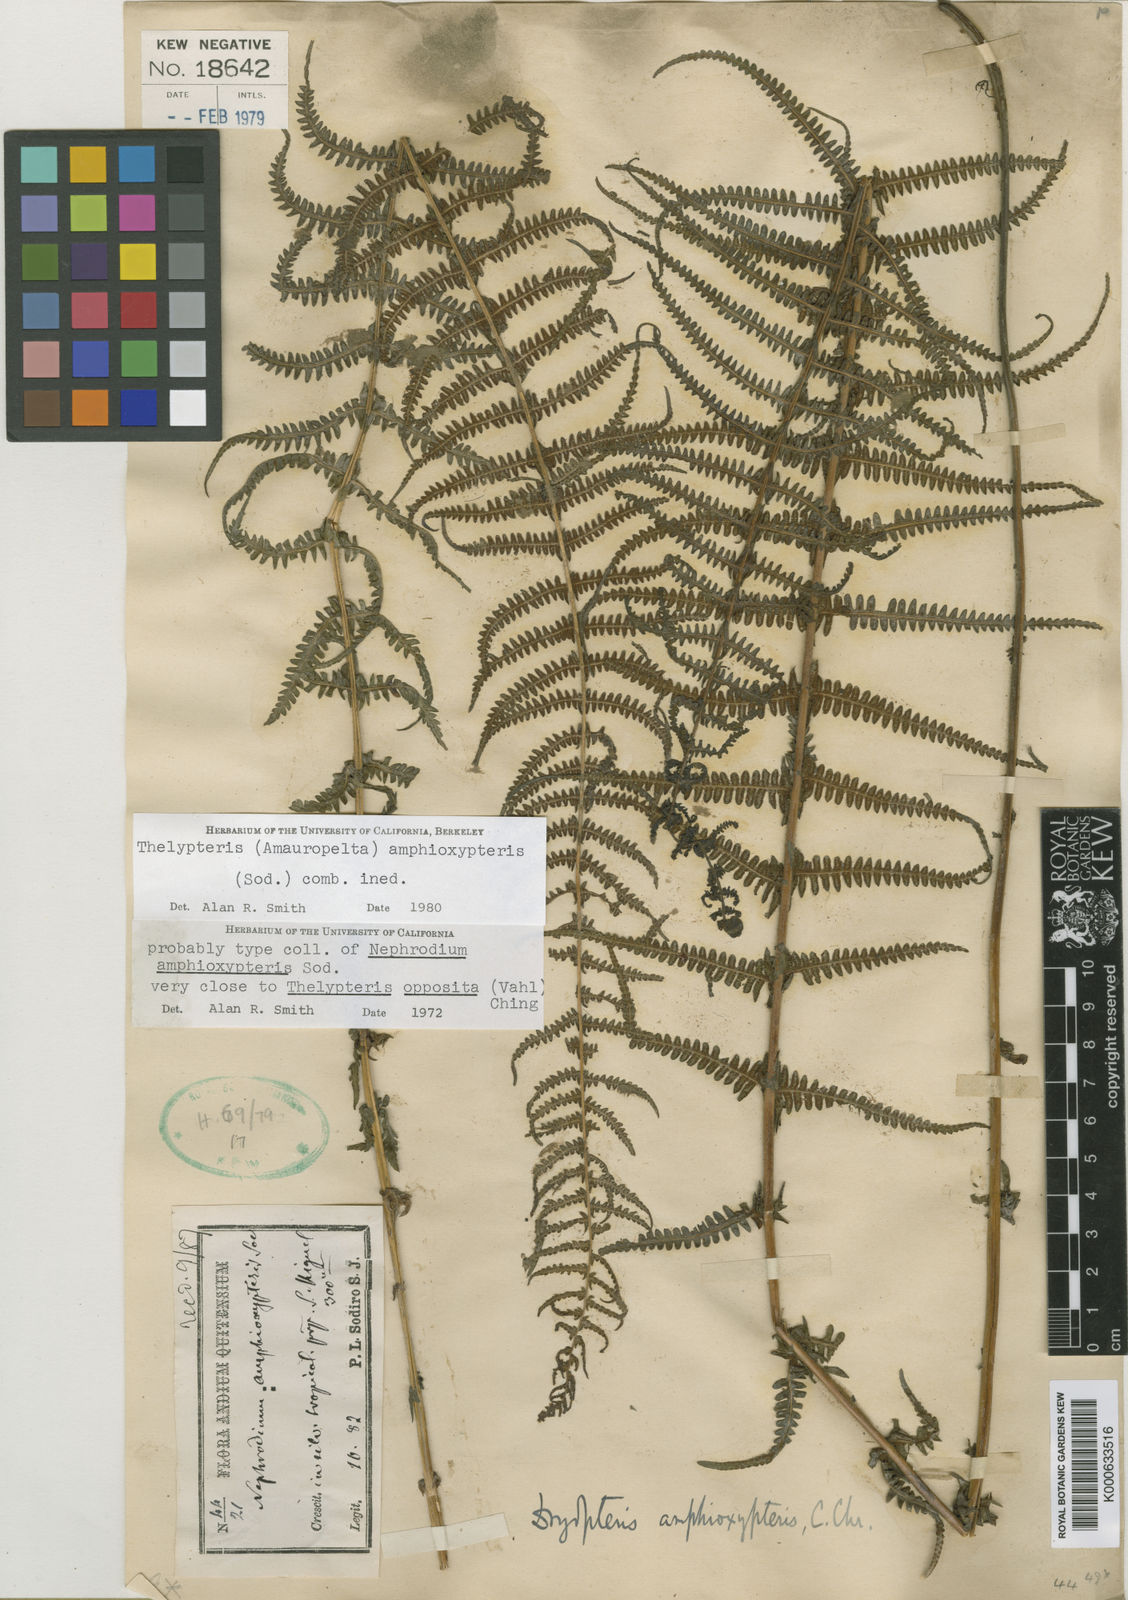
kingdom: Plantae
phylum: Tracheophyta
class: Polypodiopsida
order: Polypodiales
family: Thelypteridaceae
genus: Amauropelta
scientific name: Amauropelta amphioxypteris
